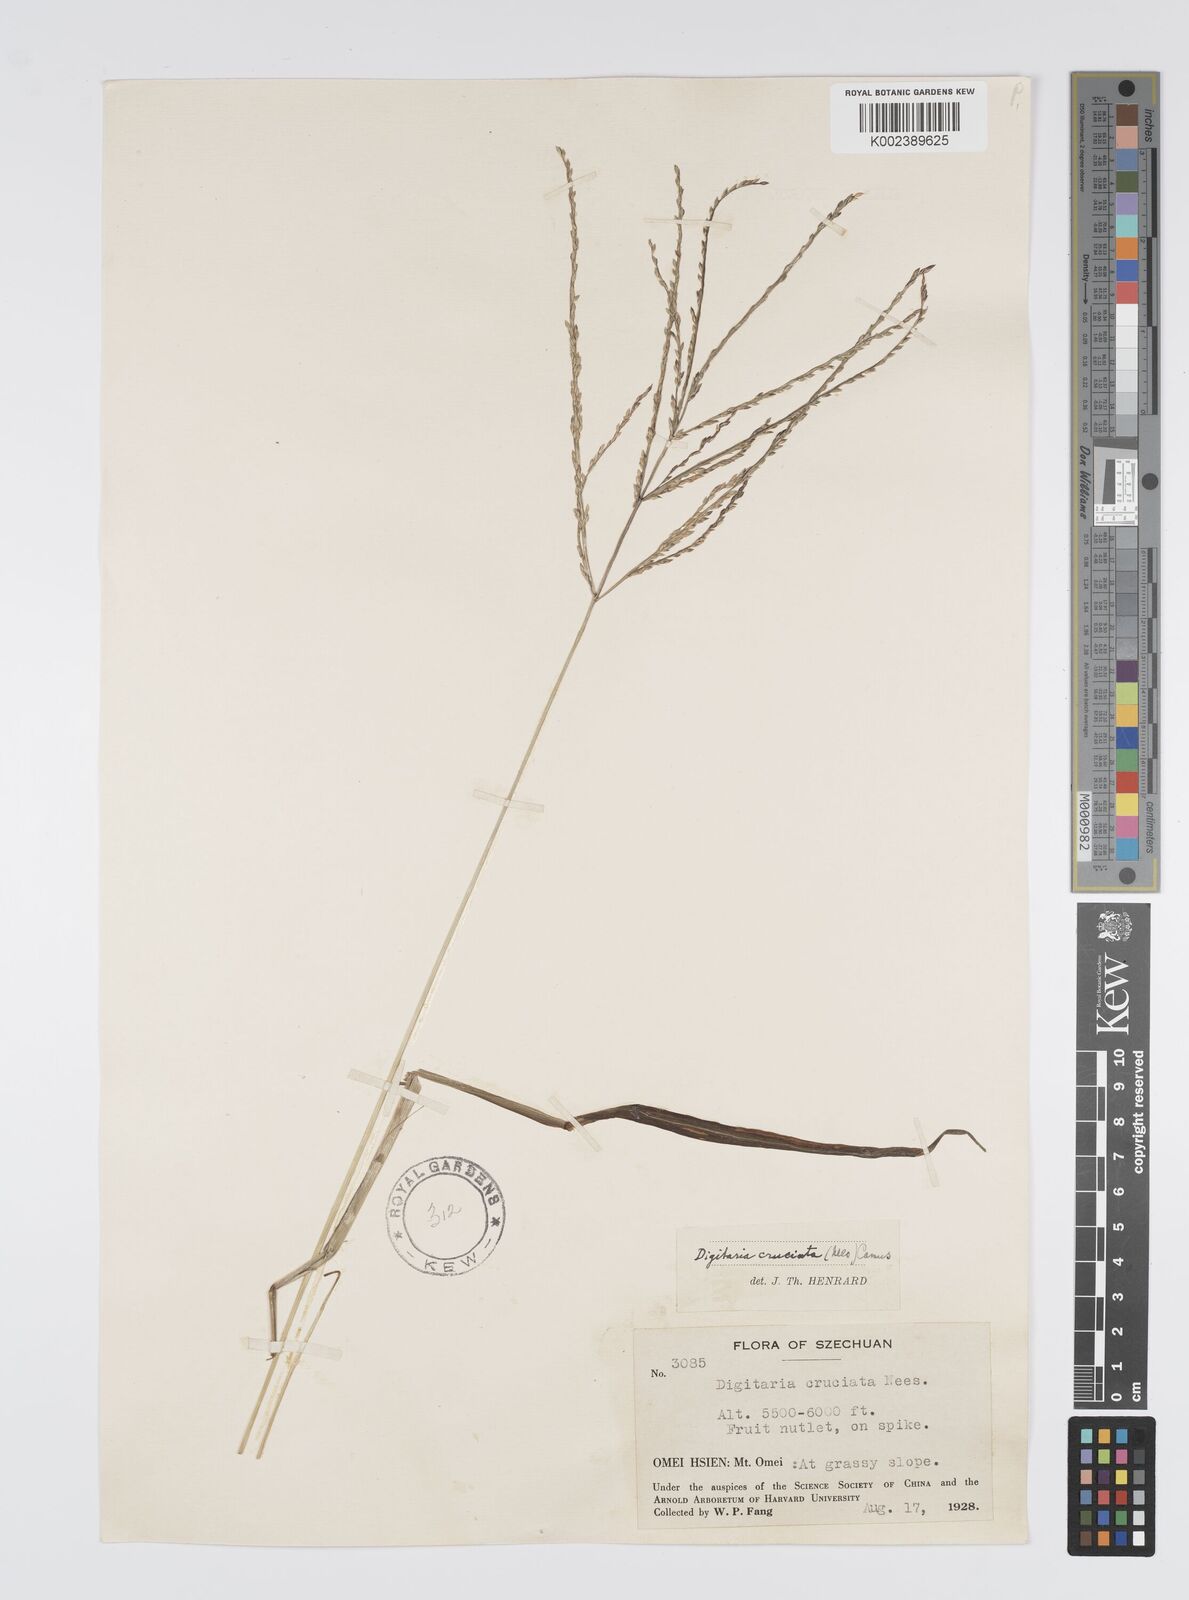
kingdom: Plantae
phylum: Tracheophyta
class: Liliopsida
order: Poales
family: Poaceae
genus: Digitaria
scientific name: Digitaria cruciata
